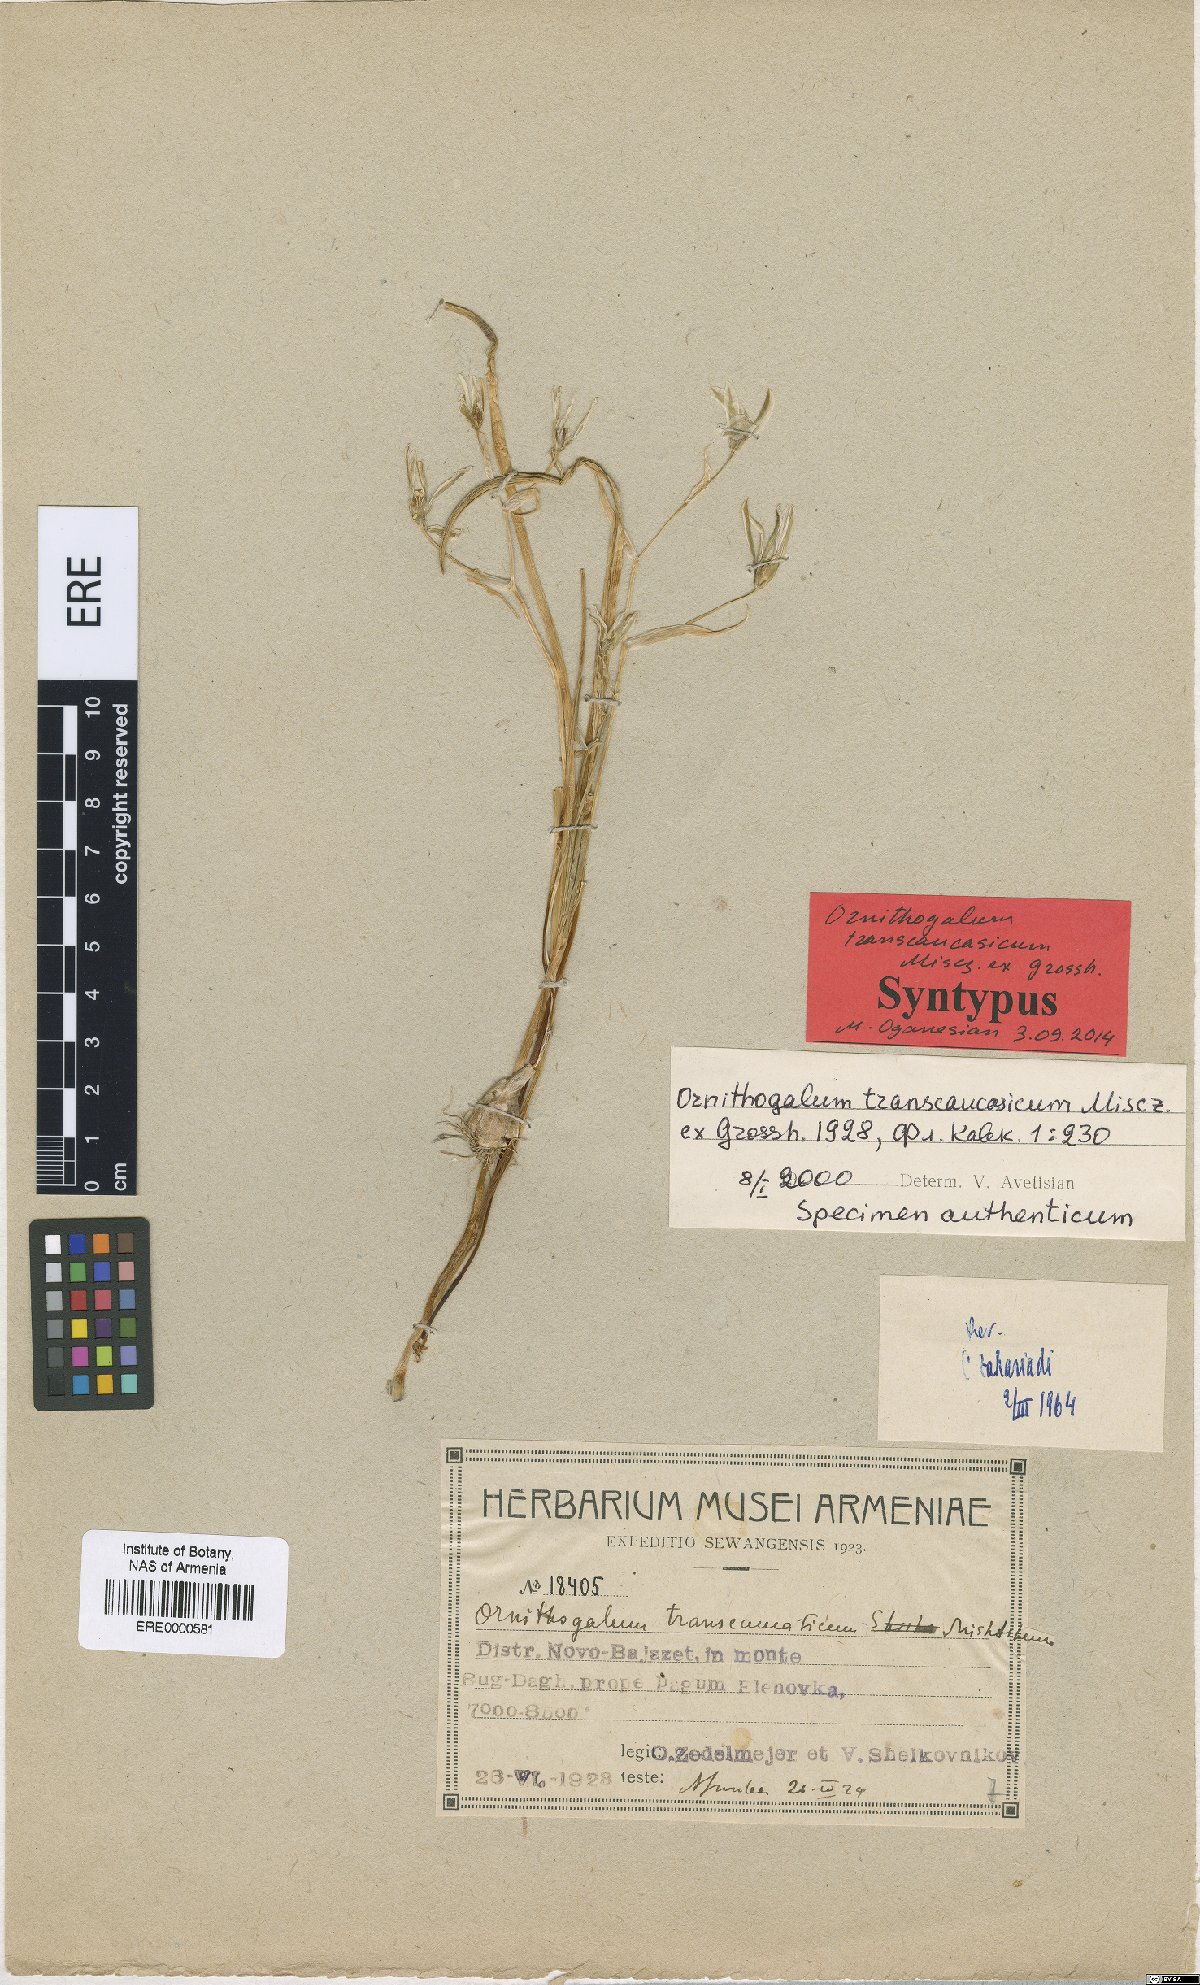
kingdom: Plantae
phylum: Tracheophyta
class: Liliopsida
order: Asparagales
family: Asparagaceae
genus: Ornithogalum
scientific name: Ornithogalum transcaucasicum
